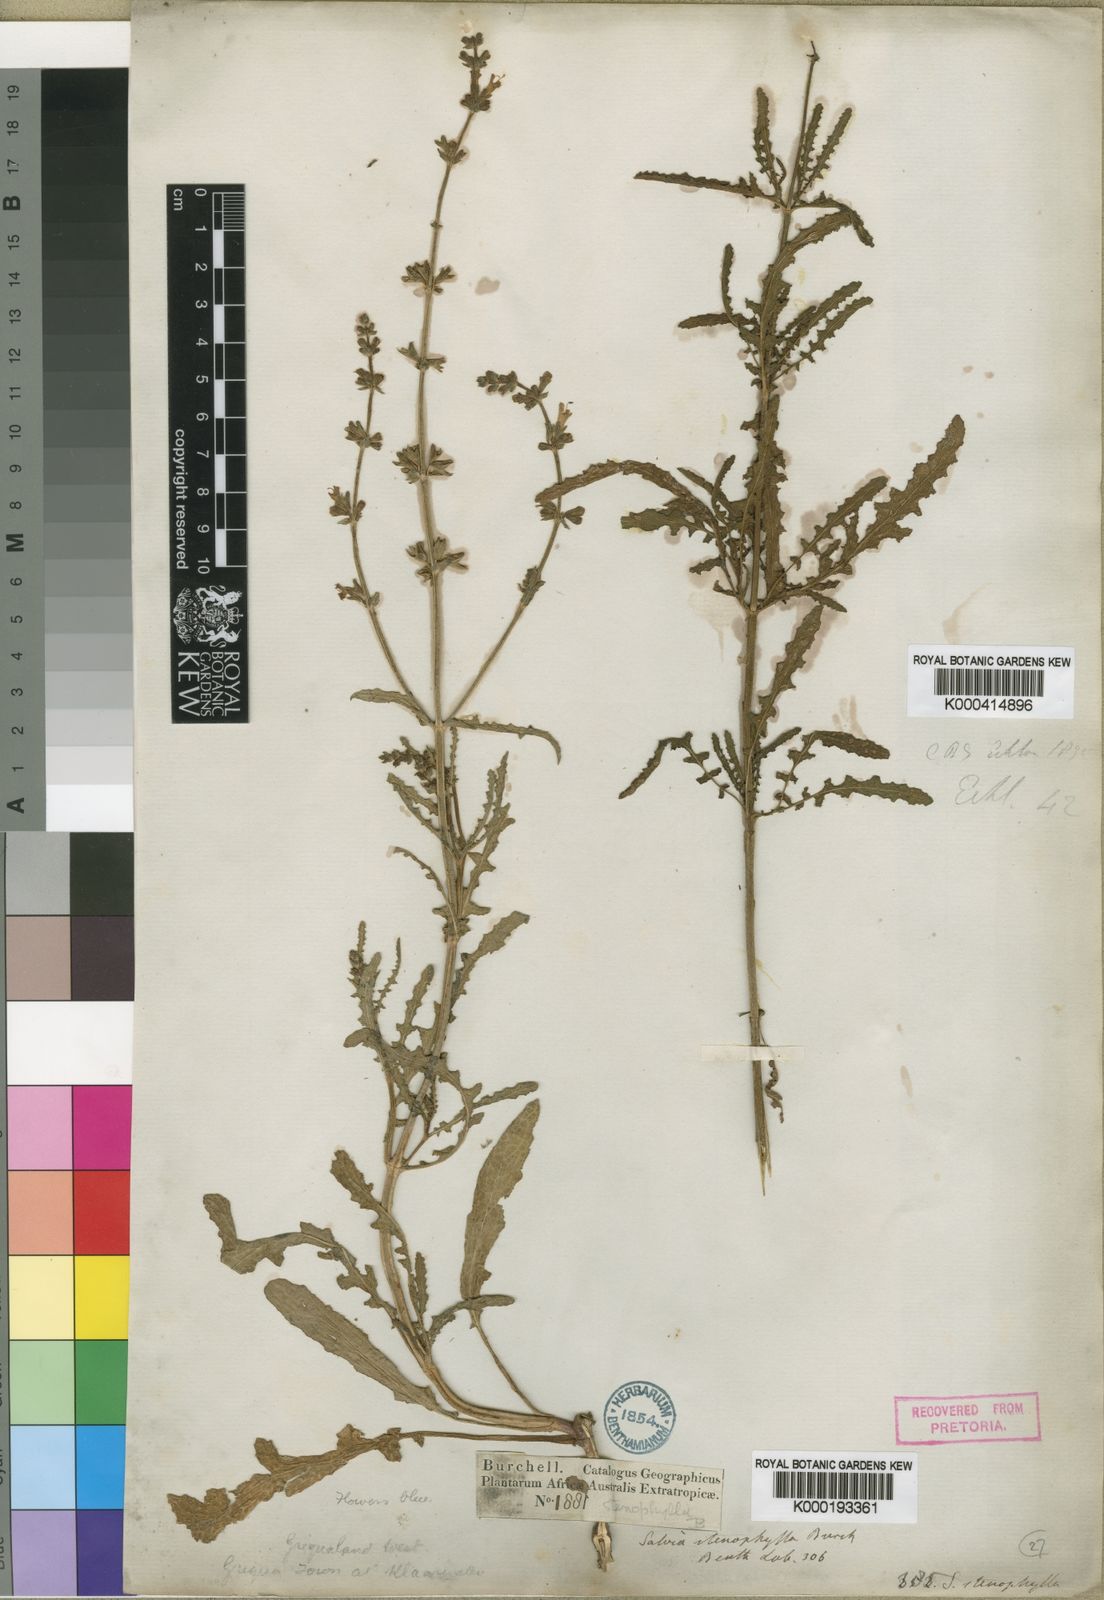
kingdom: Plantae
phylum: Tracheophyta
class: Magnoliopsida
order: Lamiales
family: Lamiaceae
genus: Salvia
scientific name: Salvia stenophylla
